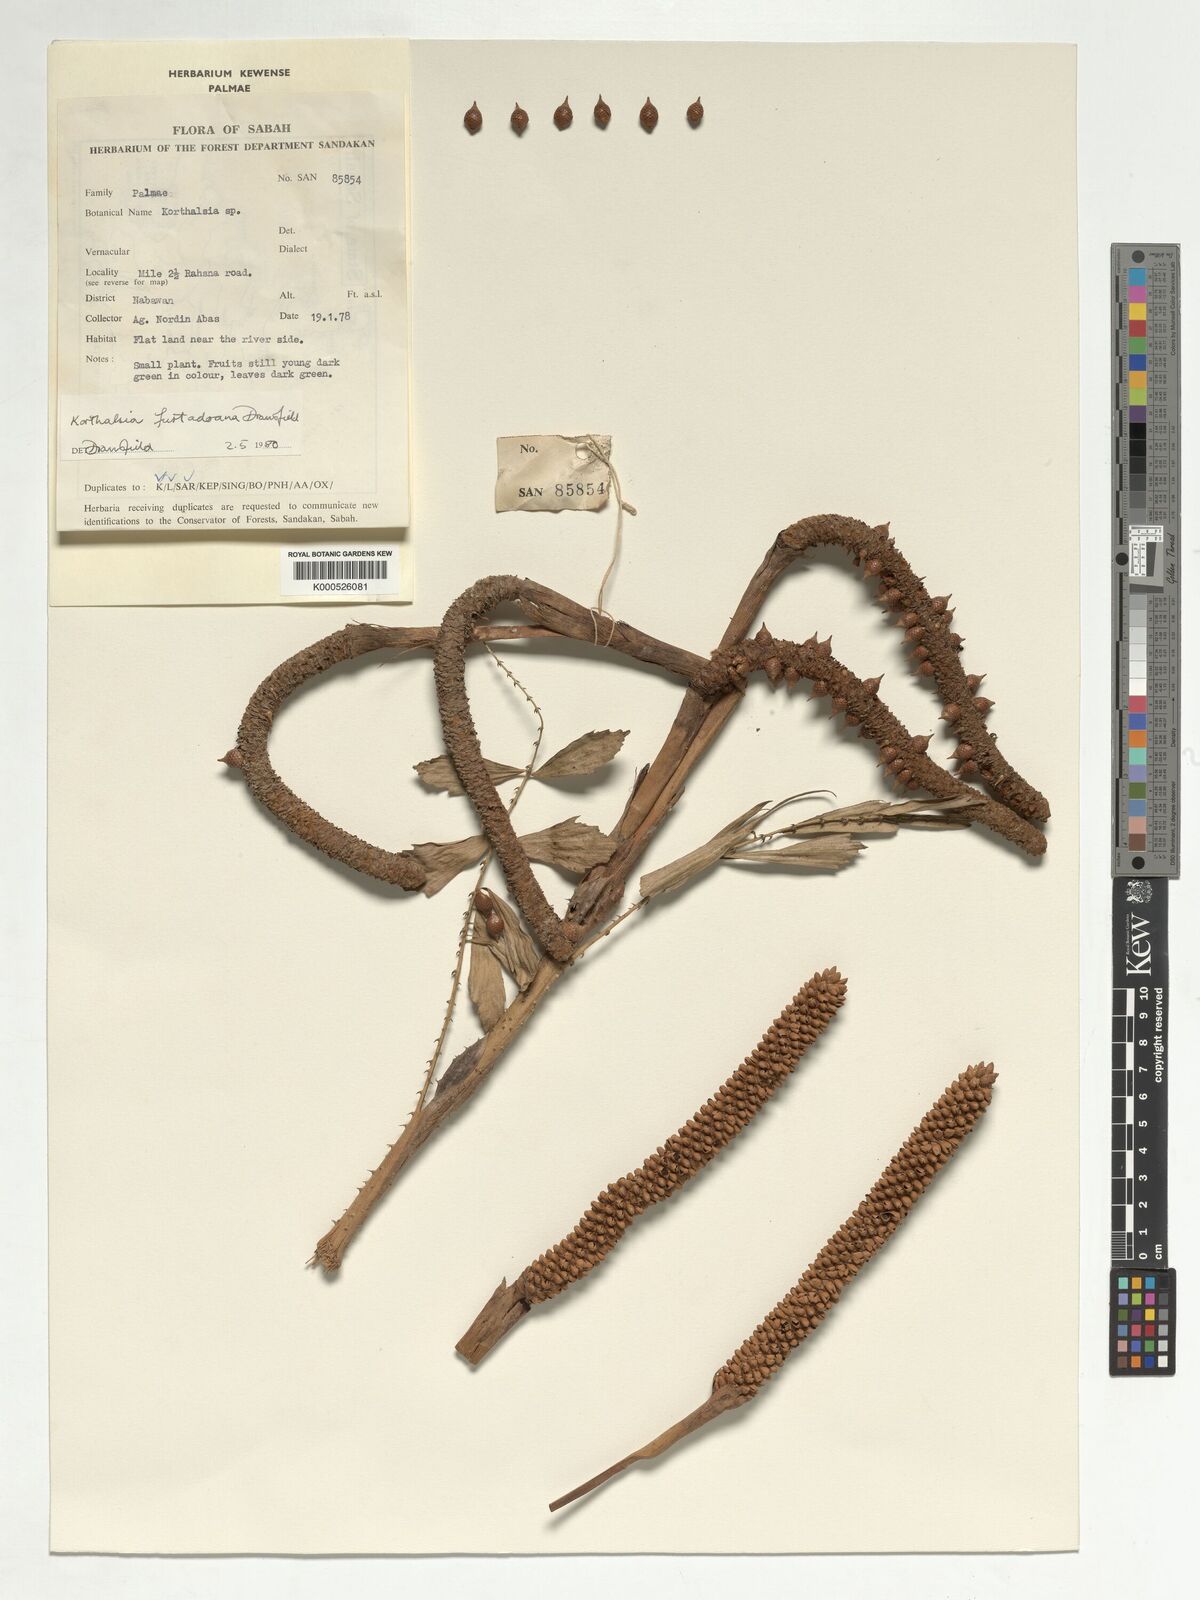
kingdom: Plantae
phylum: Tracheophyta
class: Liliopsida
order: Arecales
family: Arecaceae
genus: Korthalsia
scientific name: Korthalsia furtadoana
